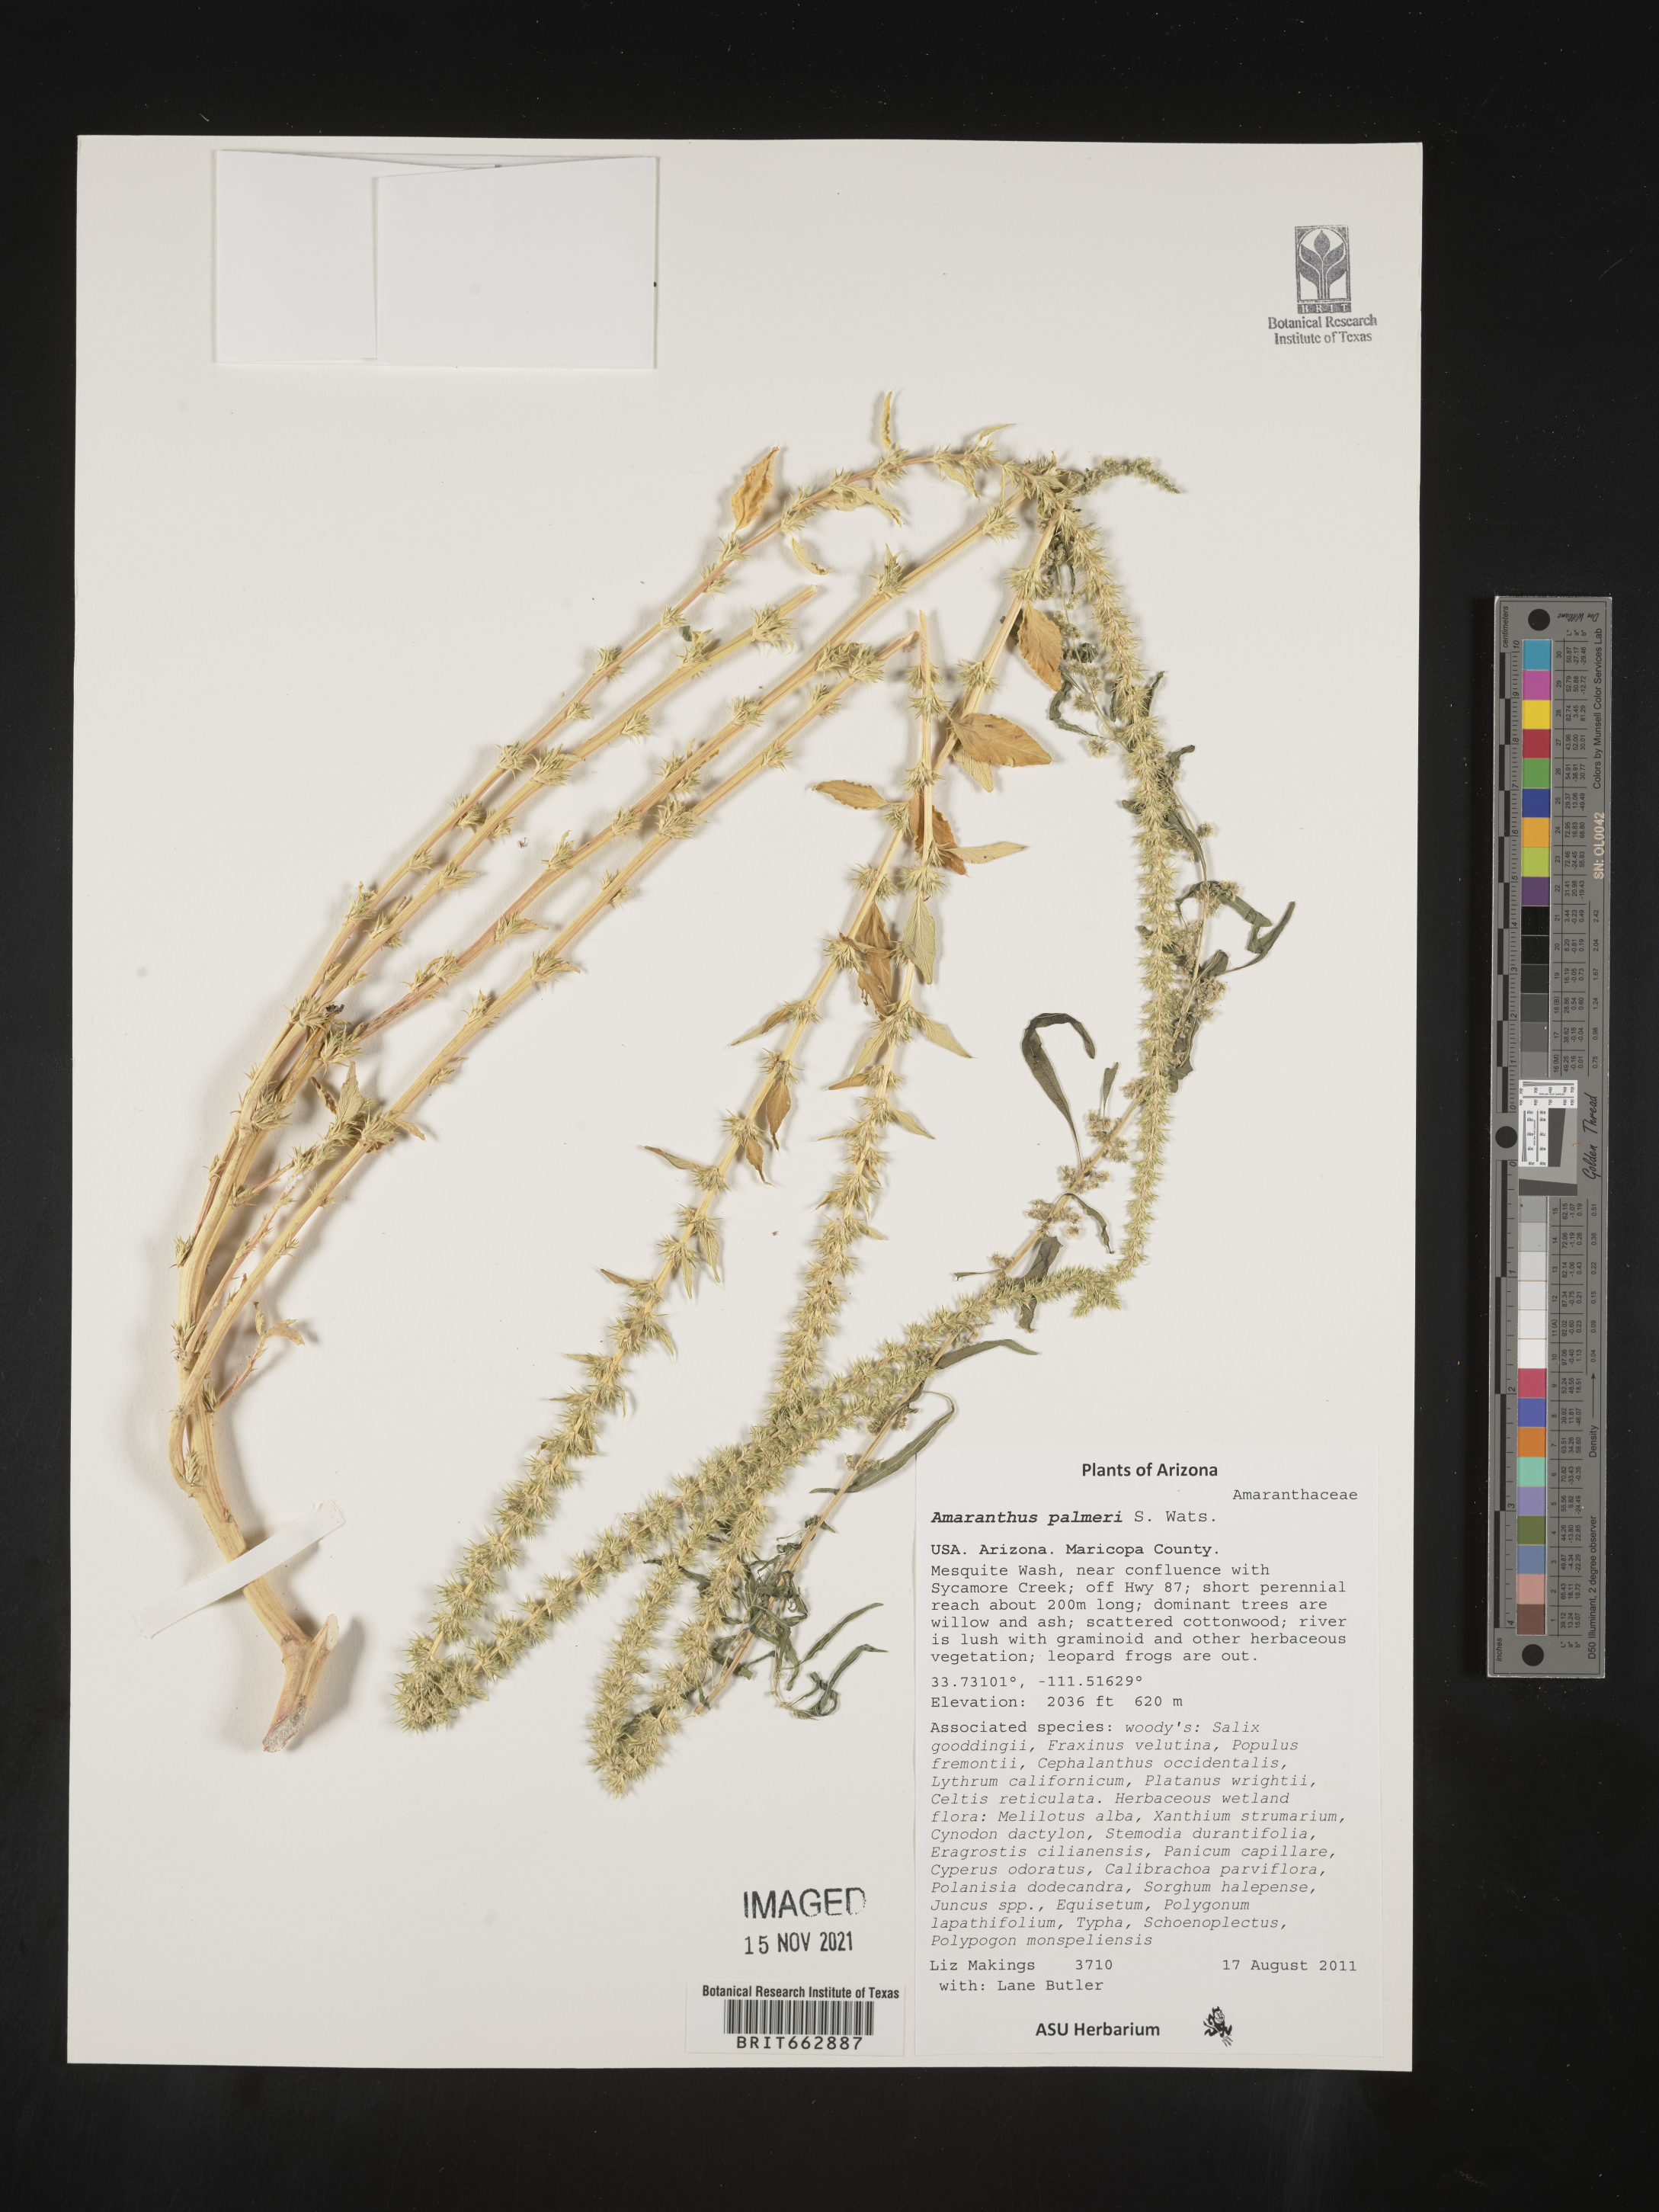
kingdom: Plantae
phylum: Tracheophyta
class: Magnoliopsida
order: Caryophyllales
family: Amaranthaceae
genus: Amaranthus
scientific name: Amaranthus palmeri
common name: Dioecious amaranth
